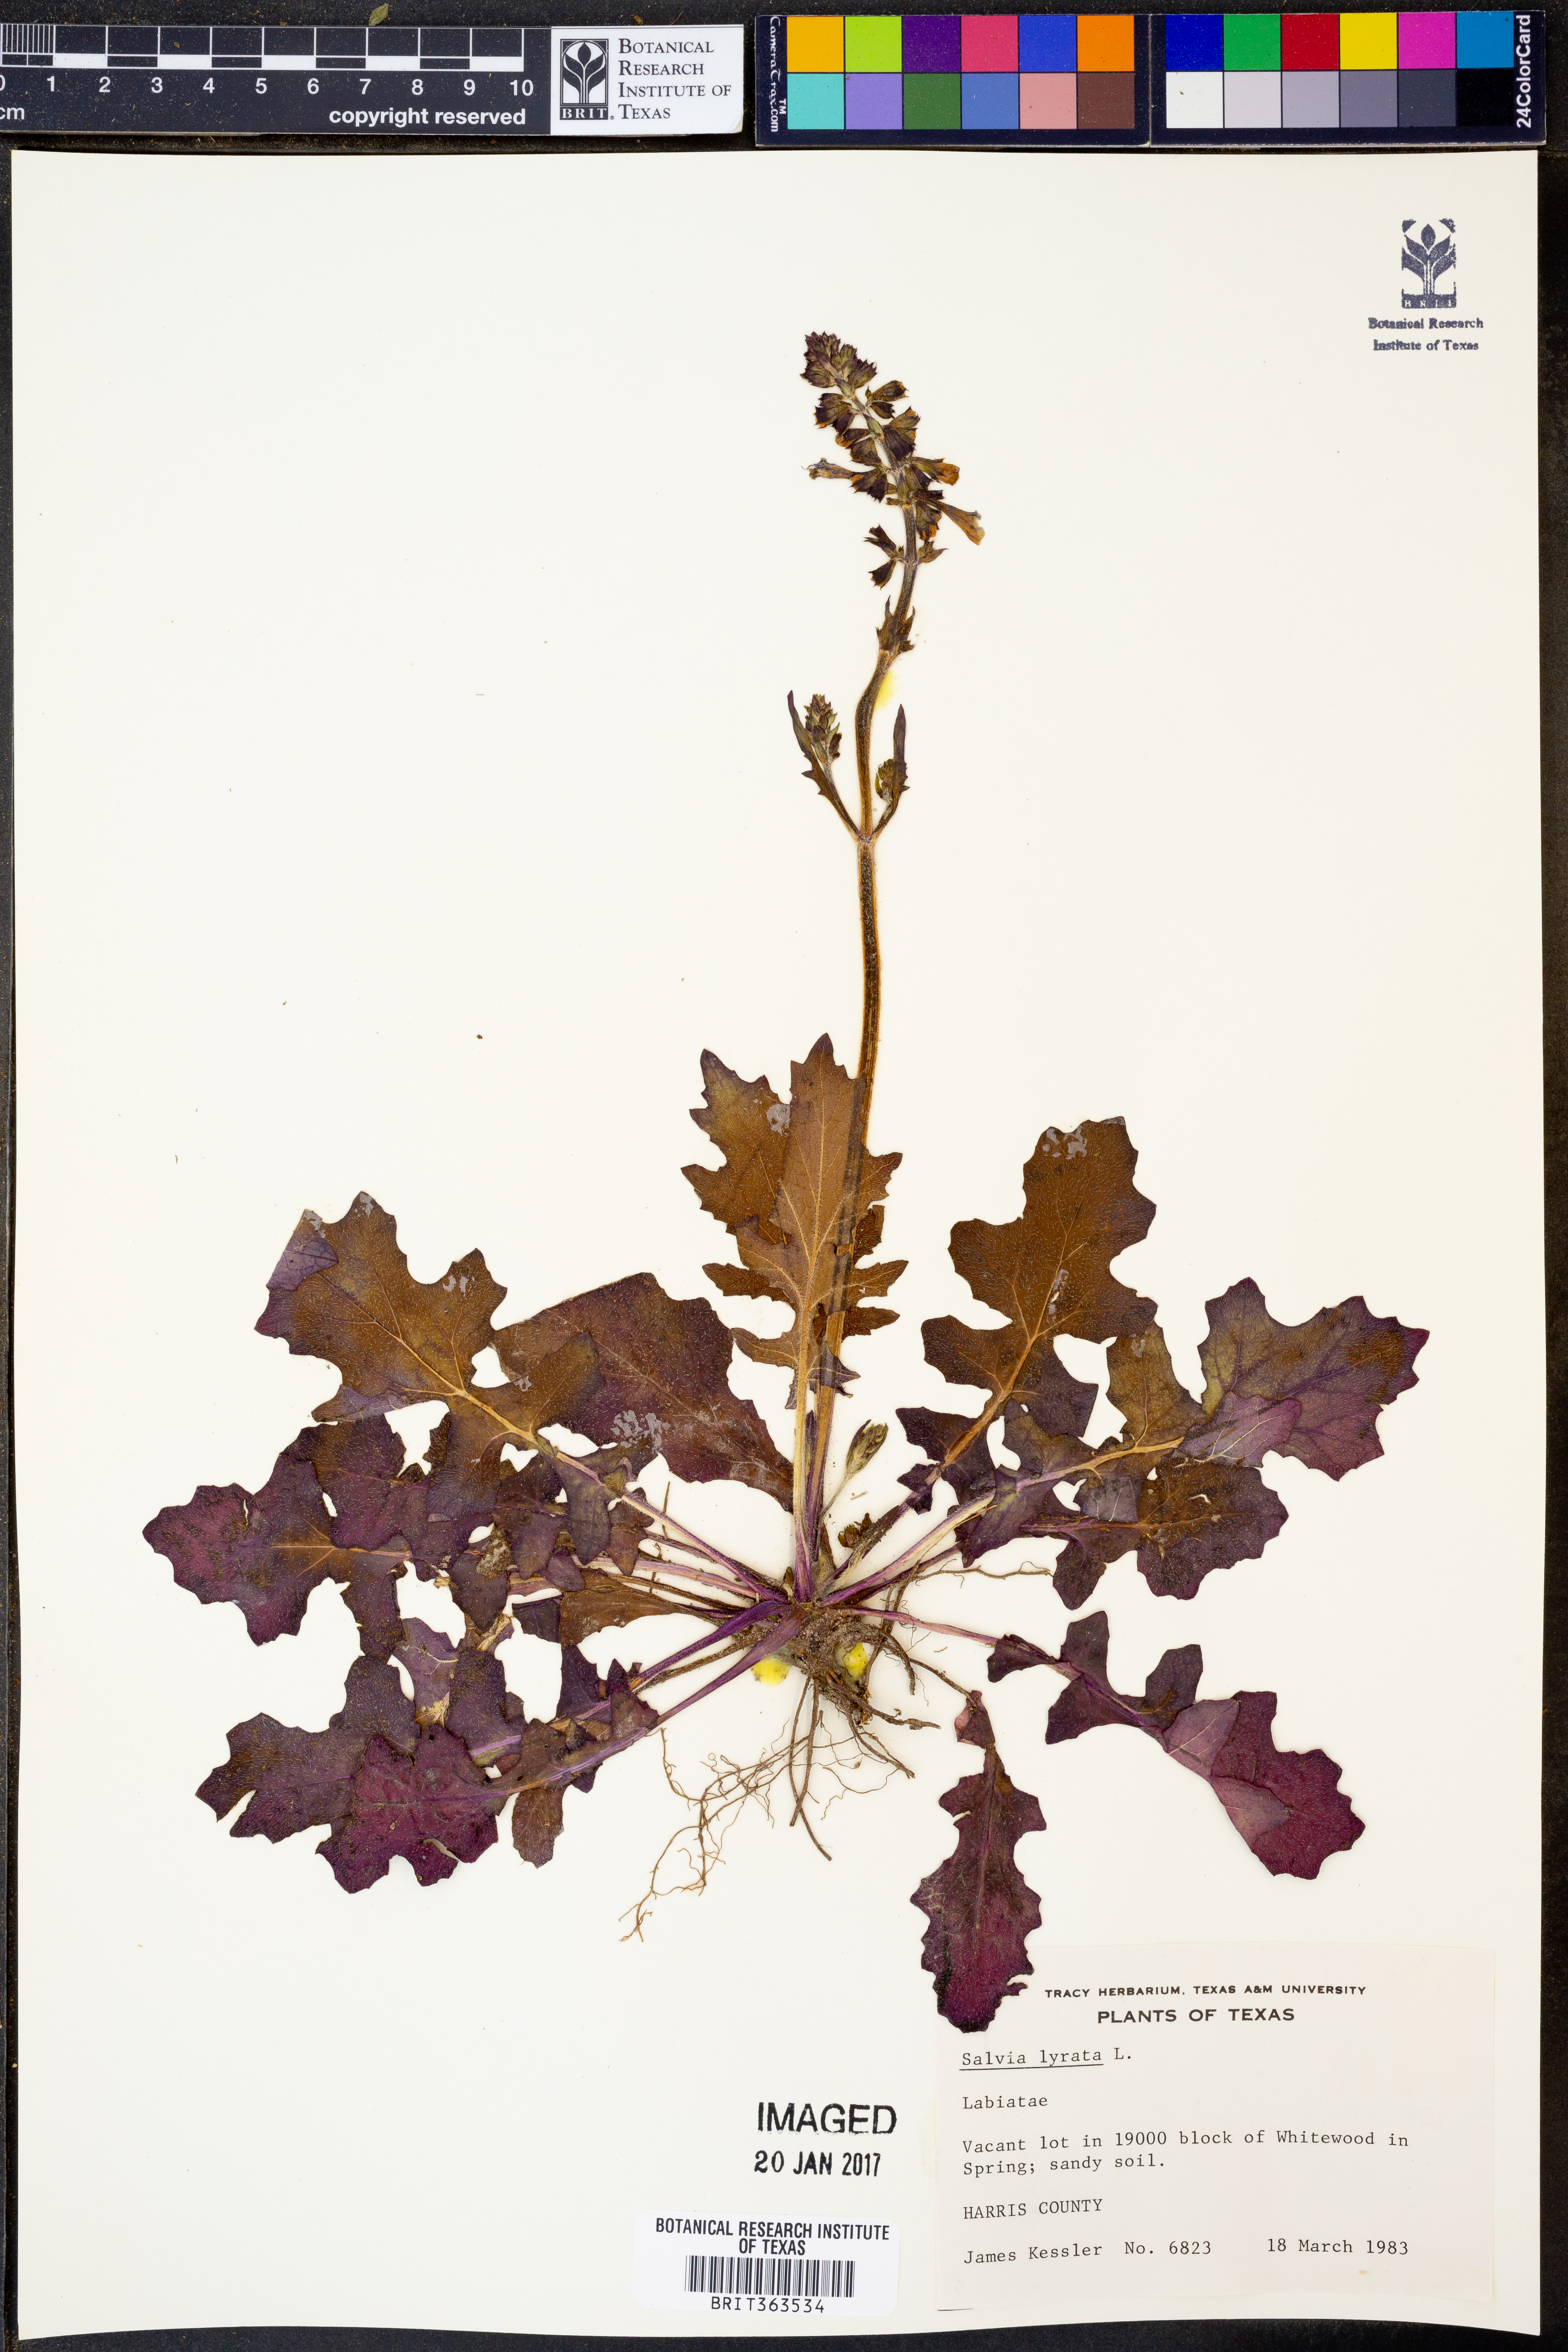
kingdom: Plantae
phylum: Tracheophyta
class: Magnoliopsida
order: Lamiales
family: Lamiaceae
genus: Salvia
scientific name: Salvia lyrata
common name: Cancerweed
